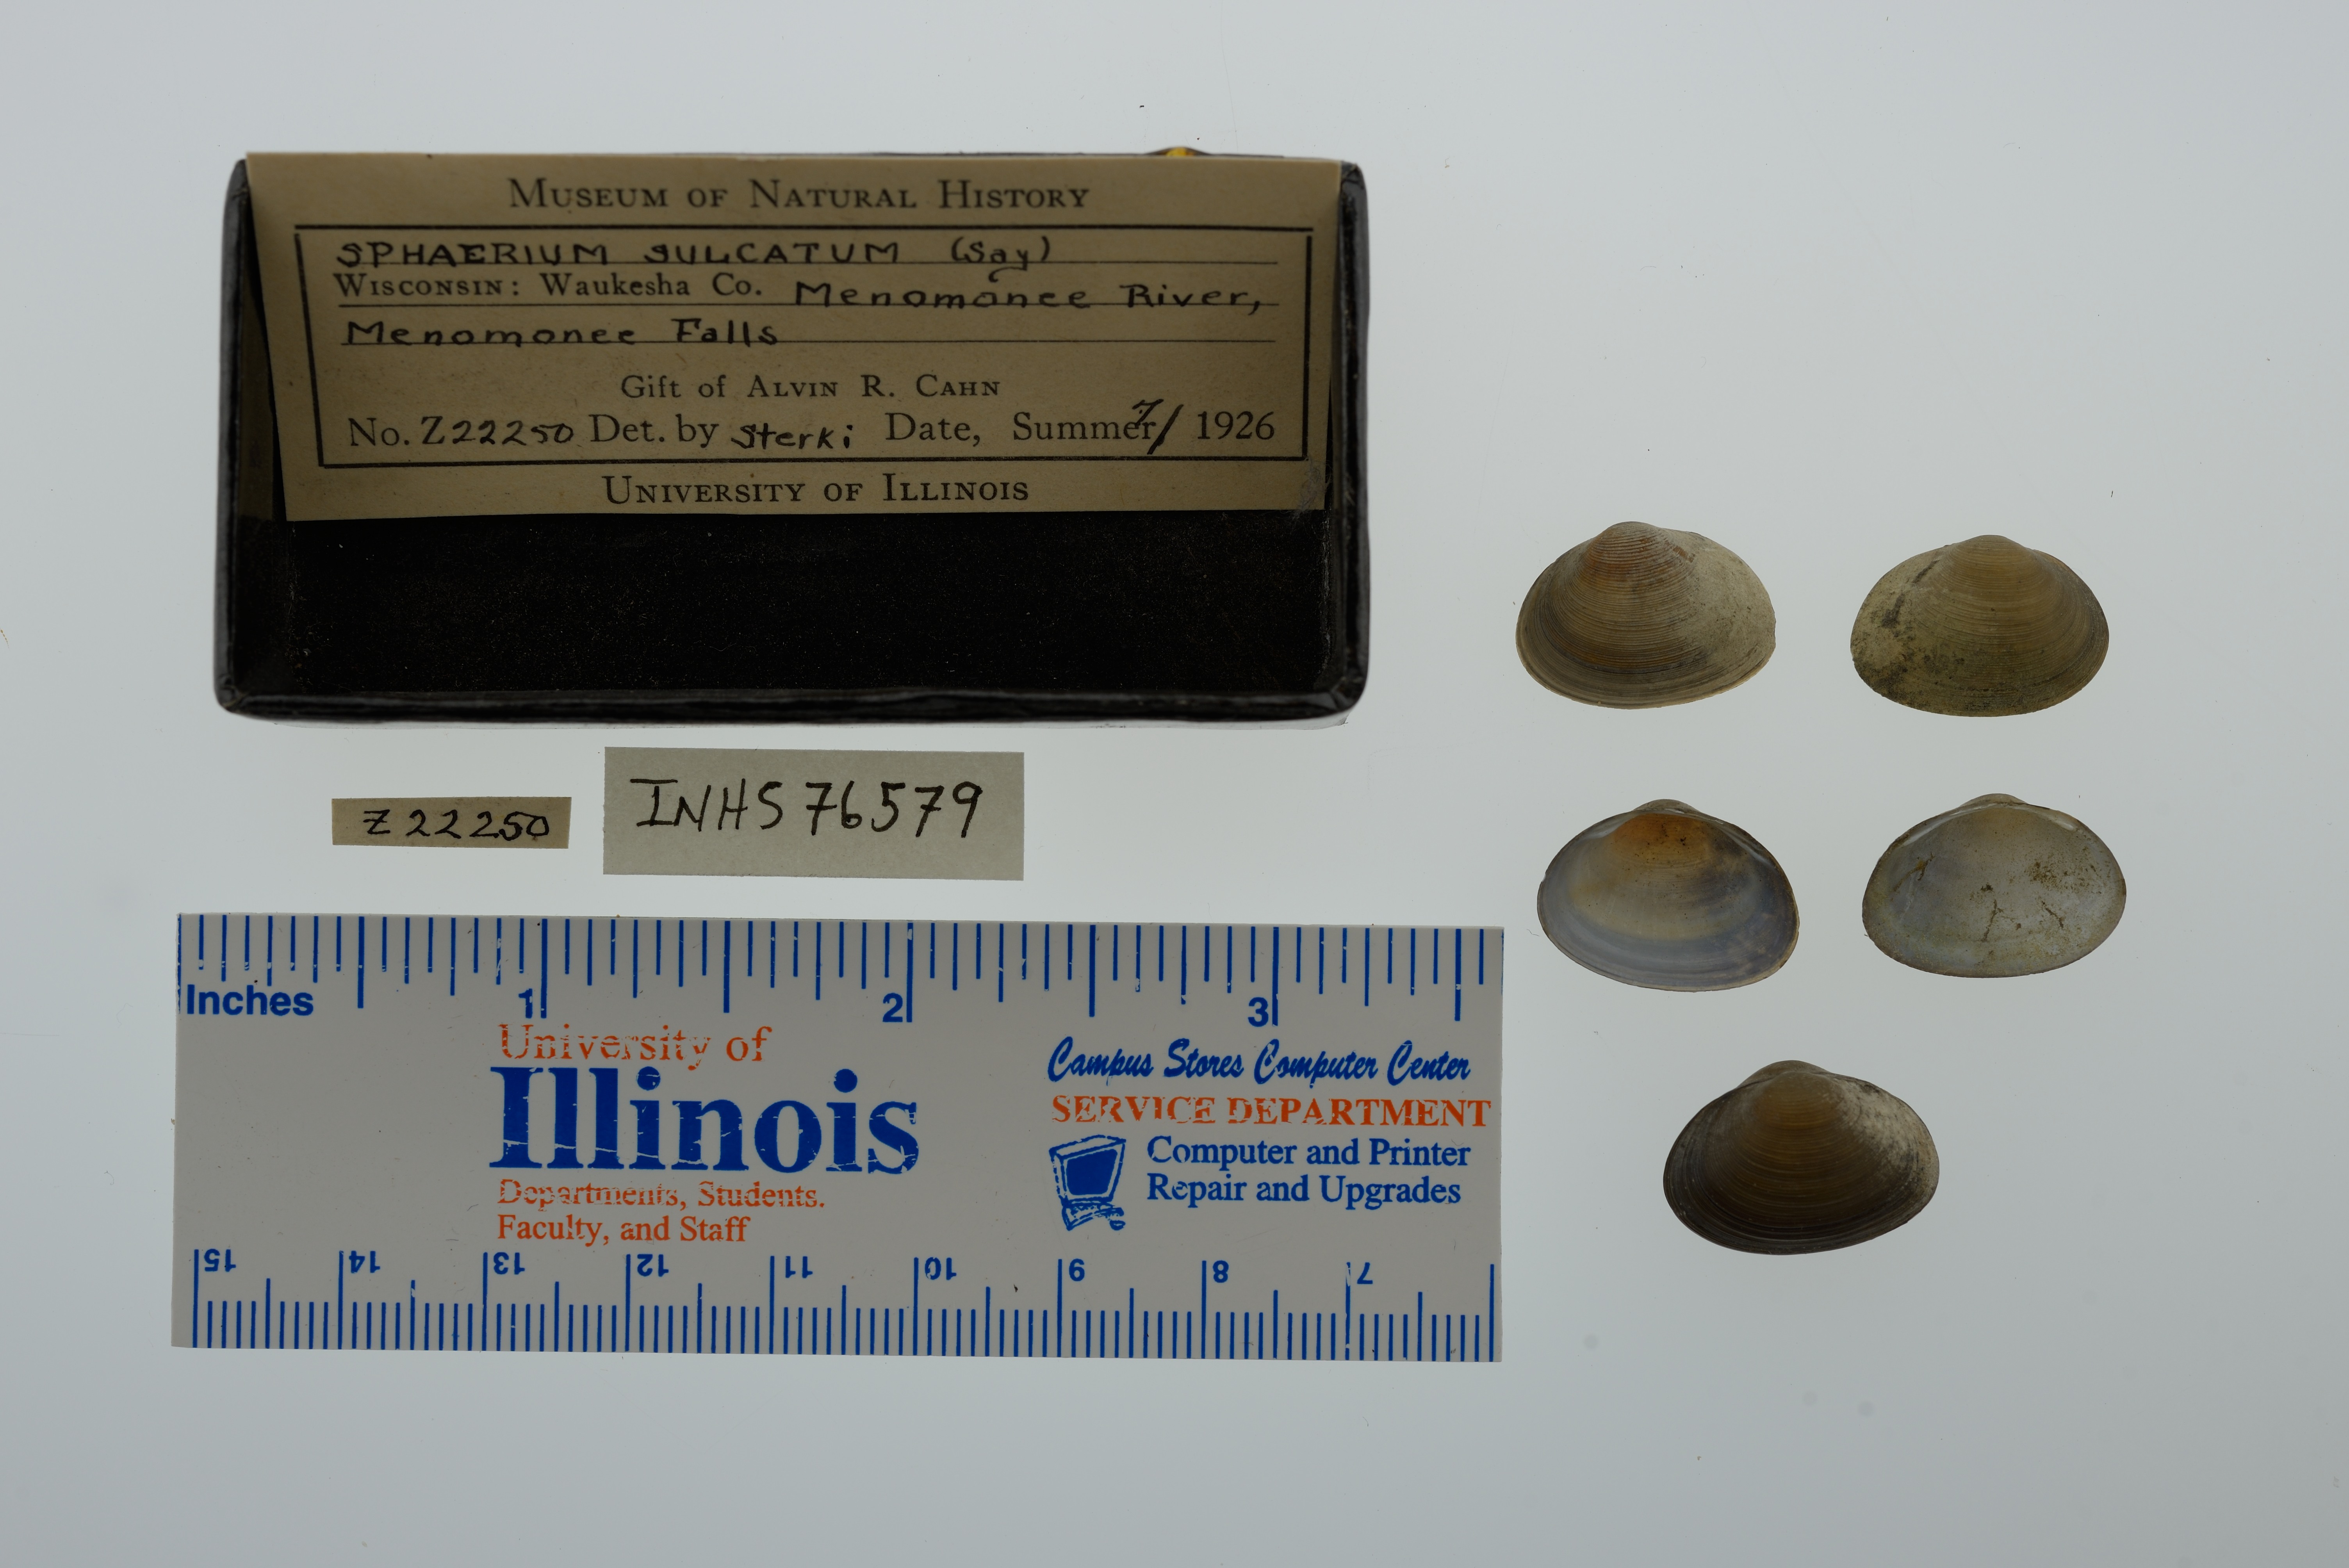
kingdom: Animalia
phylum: Mollusca
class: Bivalvia
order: Sphaeriida
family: Sphaeriidae
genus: Sphaerium
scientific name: Sphaerium simile
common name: Grooved fingernailclam
